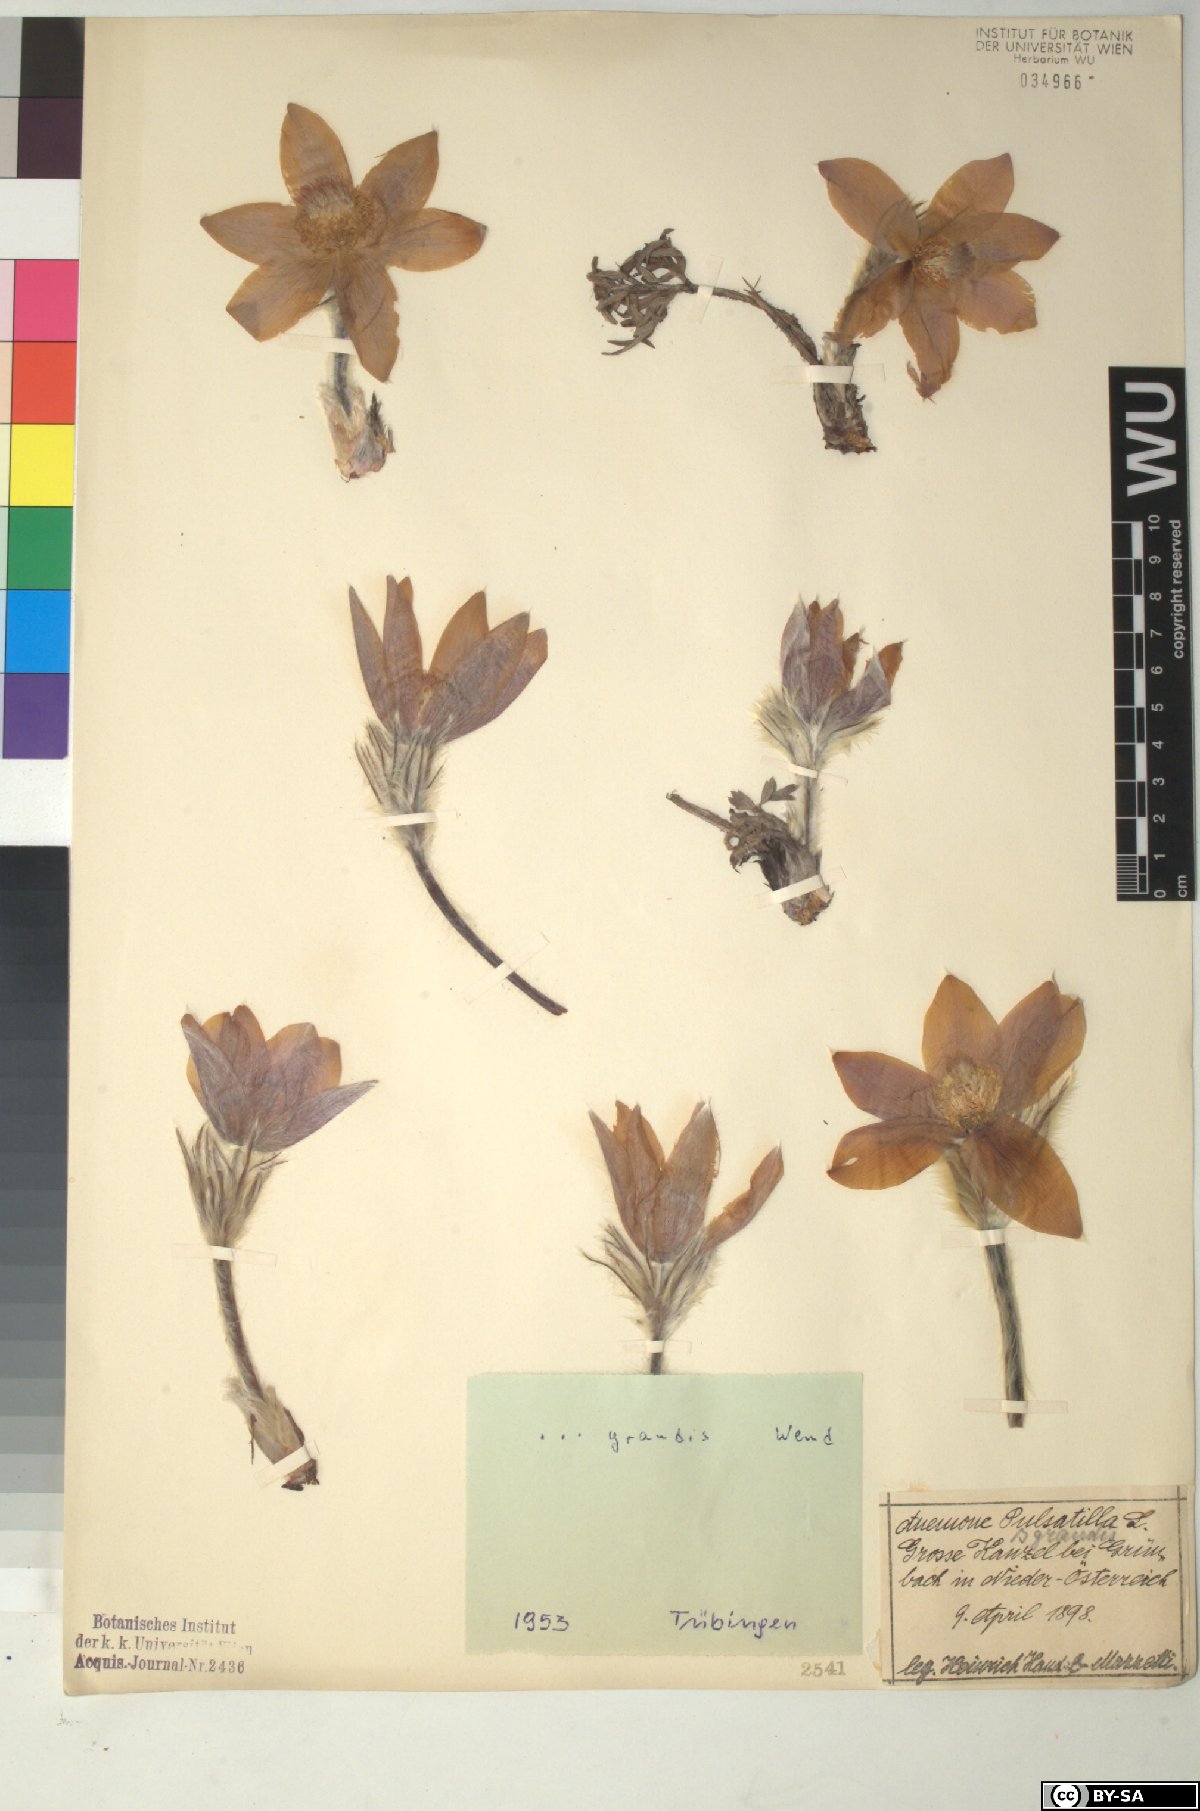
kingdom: Plantae
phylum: Tracheophyta
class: Magnoliopsida
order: Ranunculales
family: Ranunculaceae
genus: Pulsatilla
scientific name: Pulsatilla grandis
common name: Greater pasque flower
